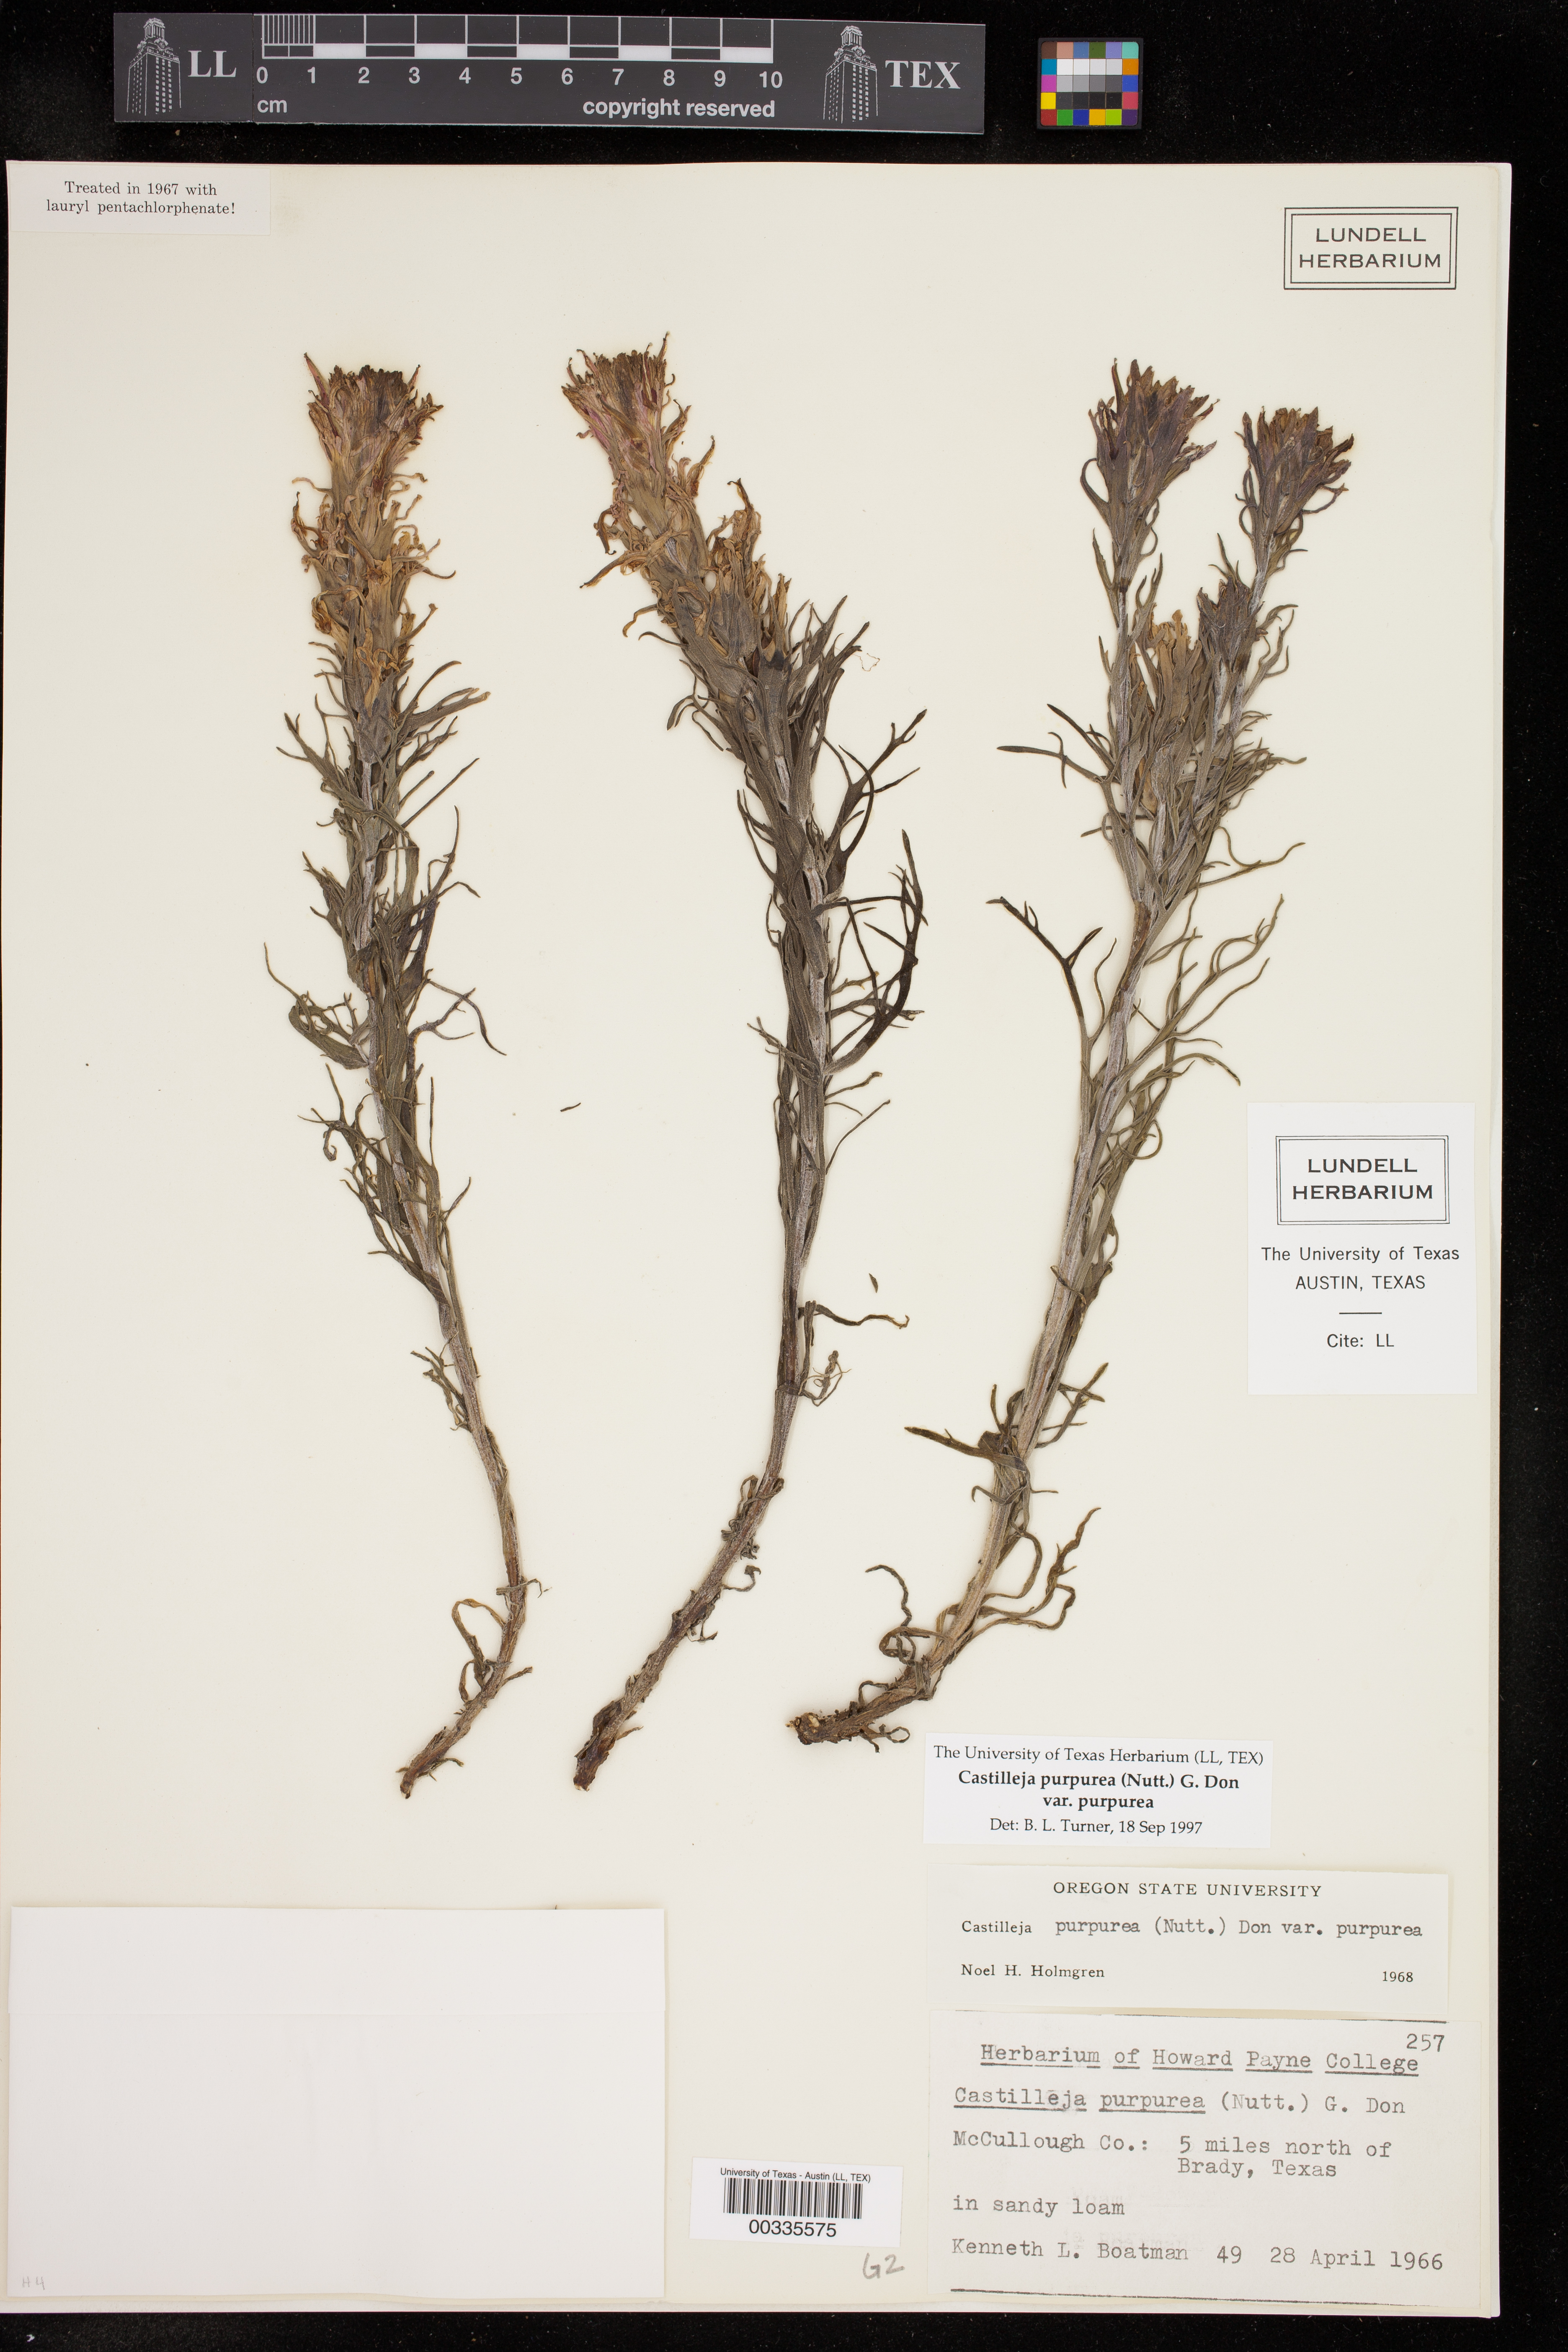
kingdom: Plantae
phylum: Tracheophyta
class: Magnoliopsida
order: Lamiales
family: Orobanchaceae
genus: Castilleja
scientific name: Castilleja purpurea
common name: Plains paintbrush
